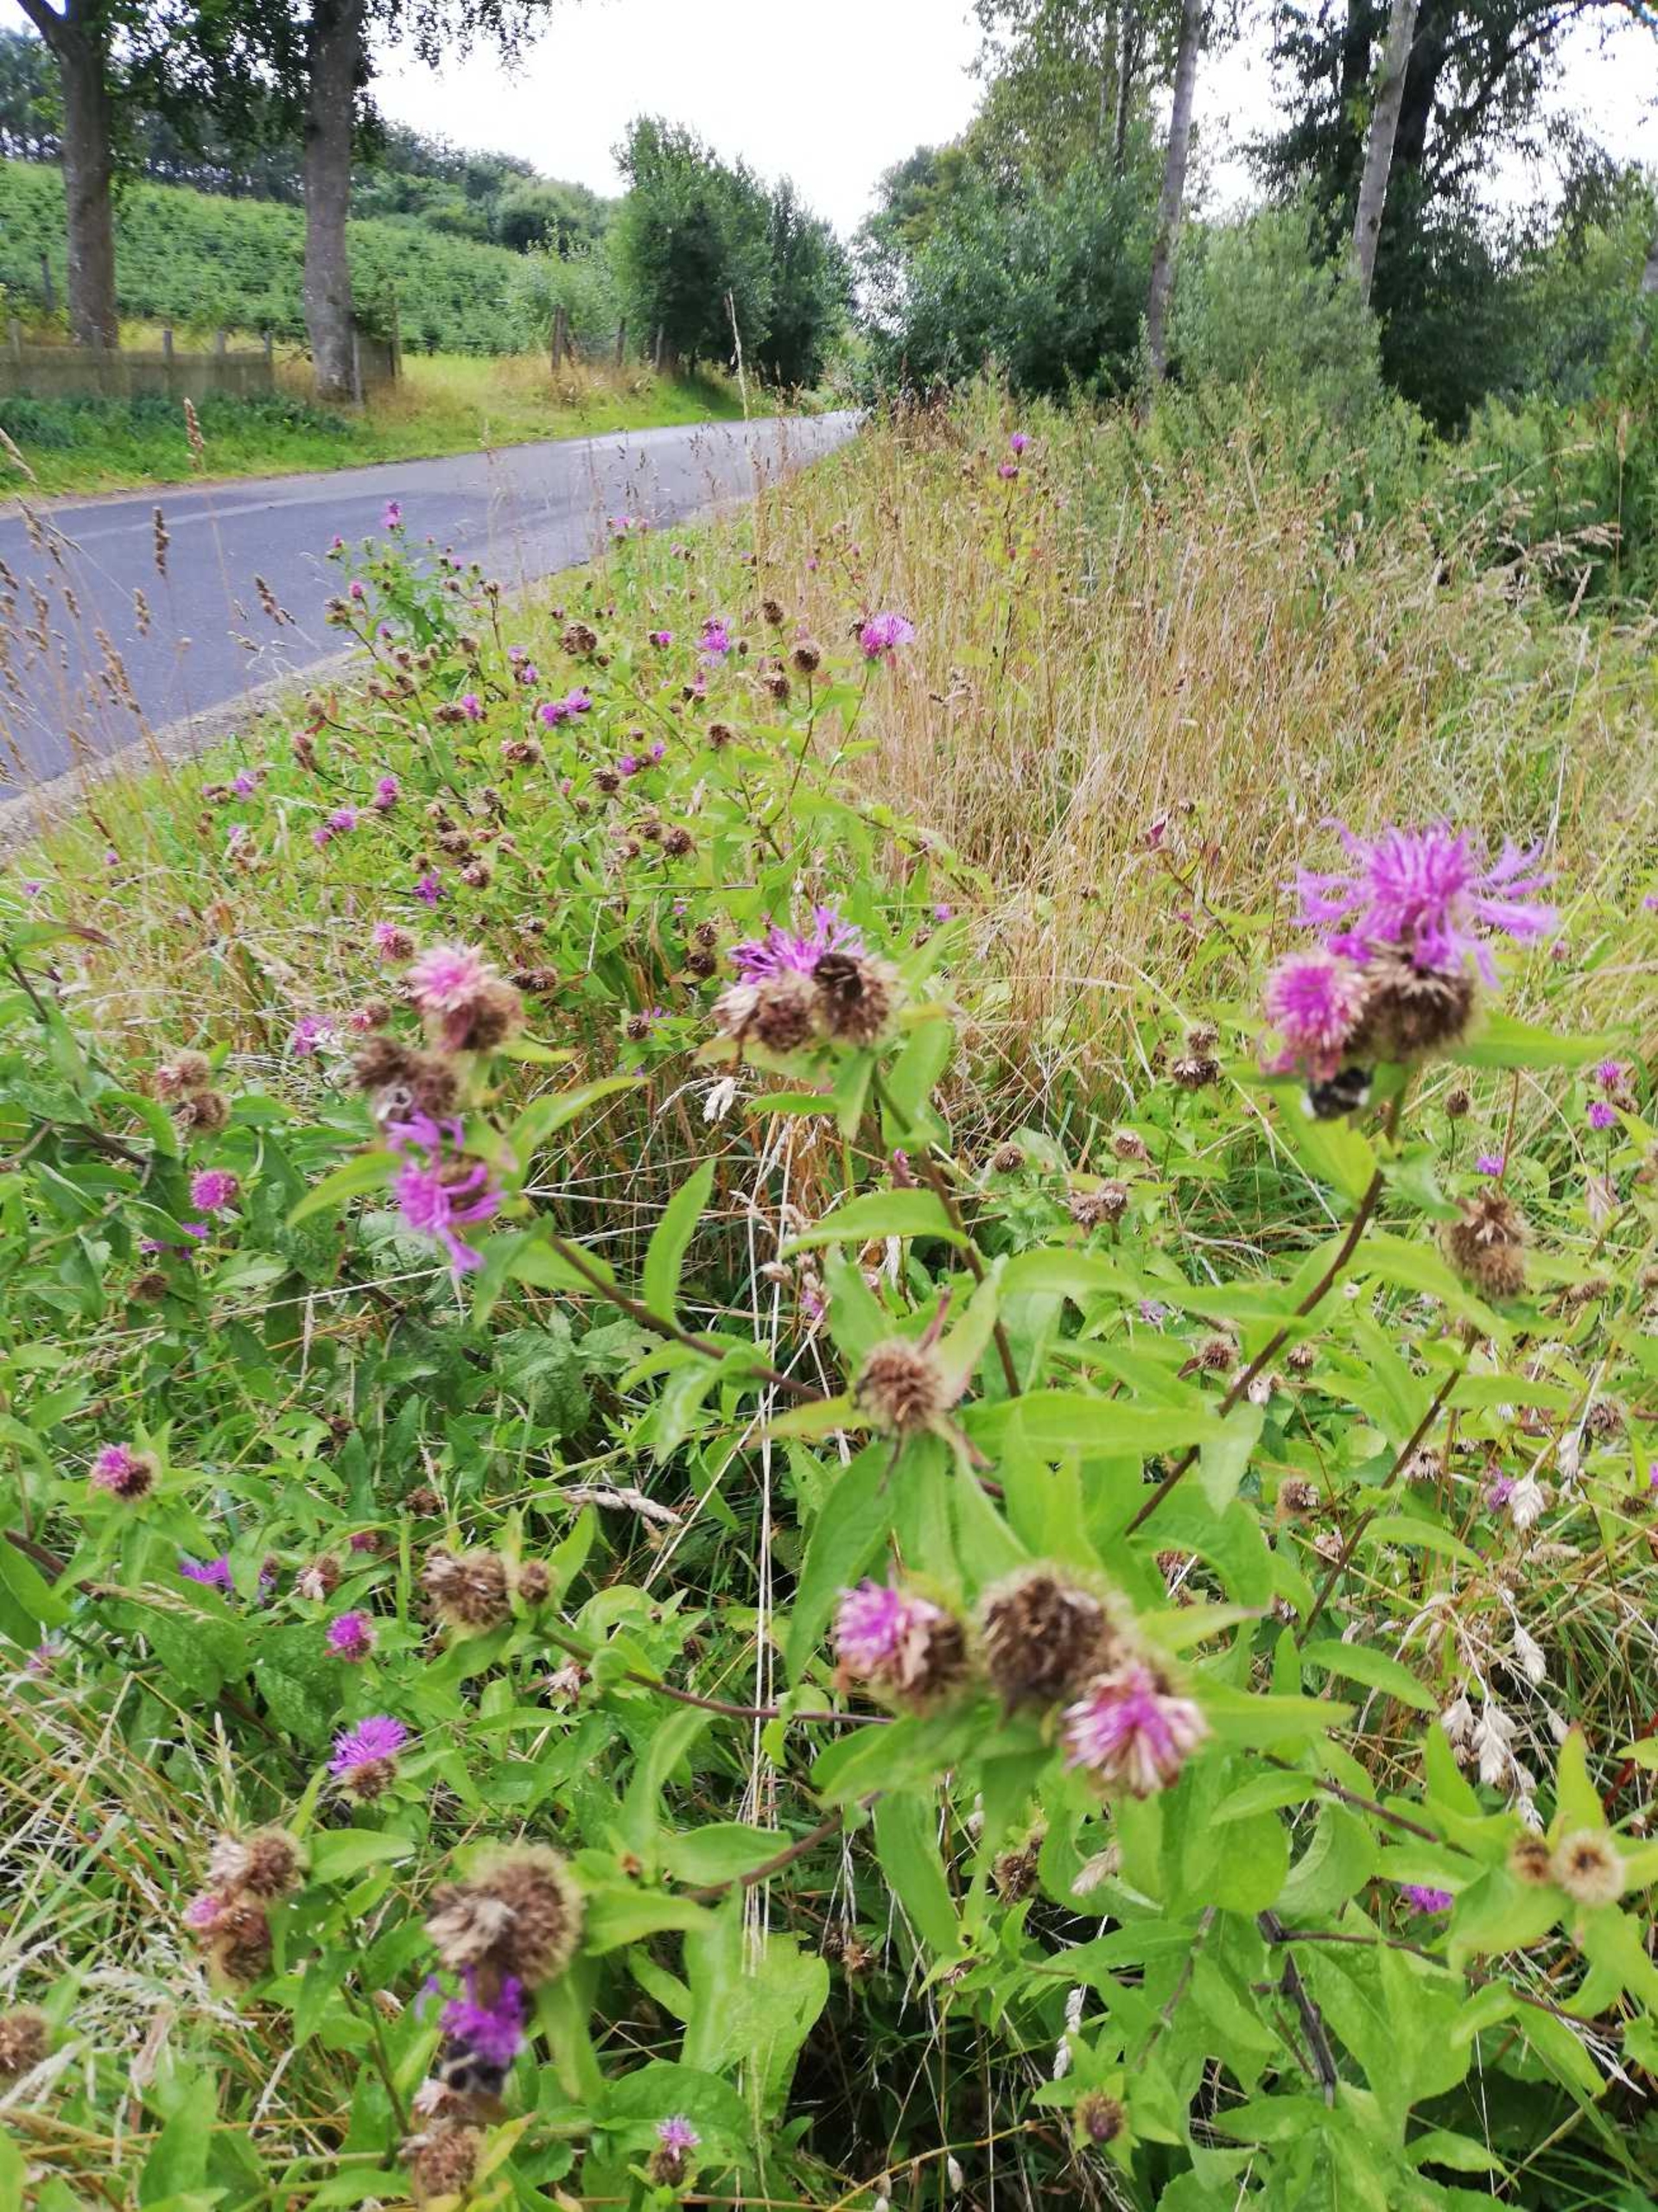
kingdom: Plantae
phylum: Tracheophyta
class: Magnoliopsida
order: Asterales
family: Asteraceae
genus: Centaurea
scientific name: Centaurea pseudophrygia
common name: Fjer-knopurt
